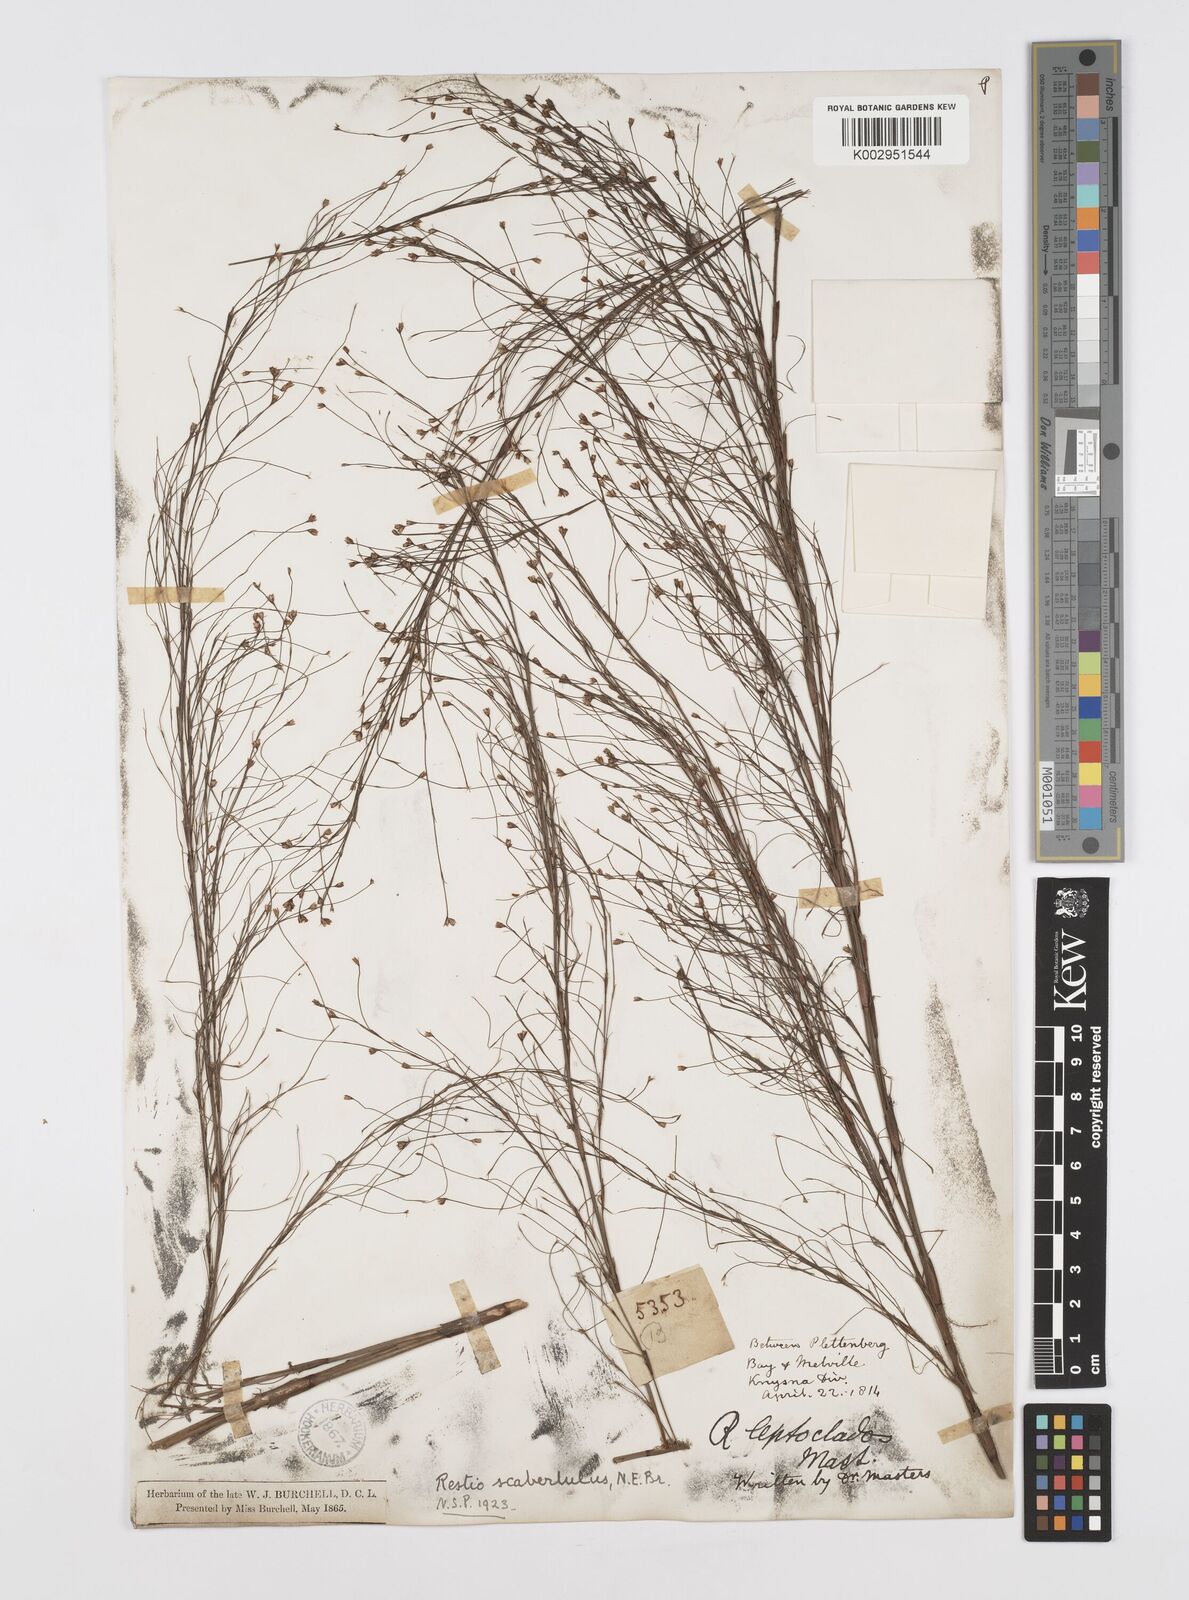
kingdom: Plantae
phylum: Tracheophyta
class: Liliopsida
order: Poales
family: Restionaceae
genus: Restio
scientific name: Restio scaberulus
